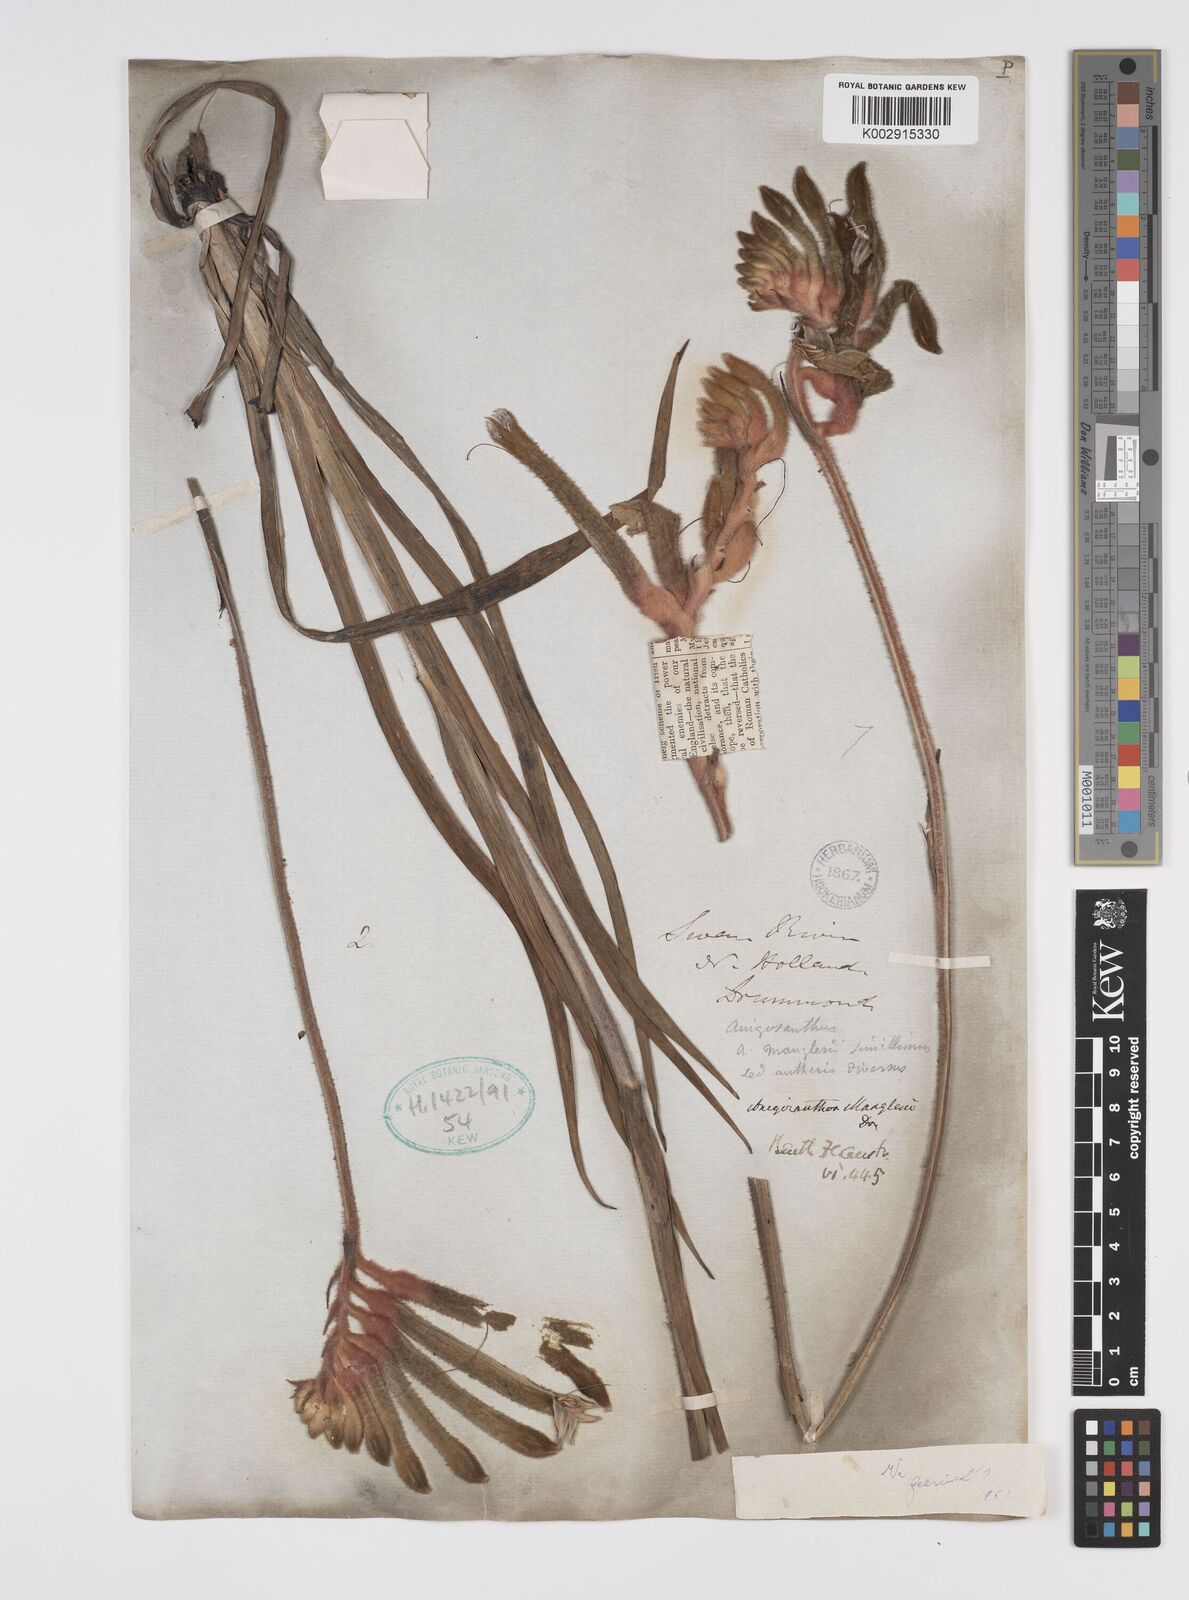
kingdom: Plantae
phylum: Tracheophyta
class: Liliopsida
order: Commelinales
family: Haemodoraceae
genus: Anigozanthos
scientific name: Anigozanthos manglesii
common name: Mangles's kangaroo-paw
